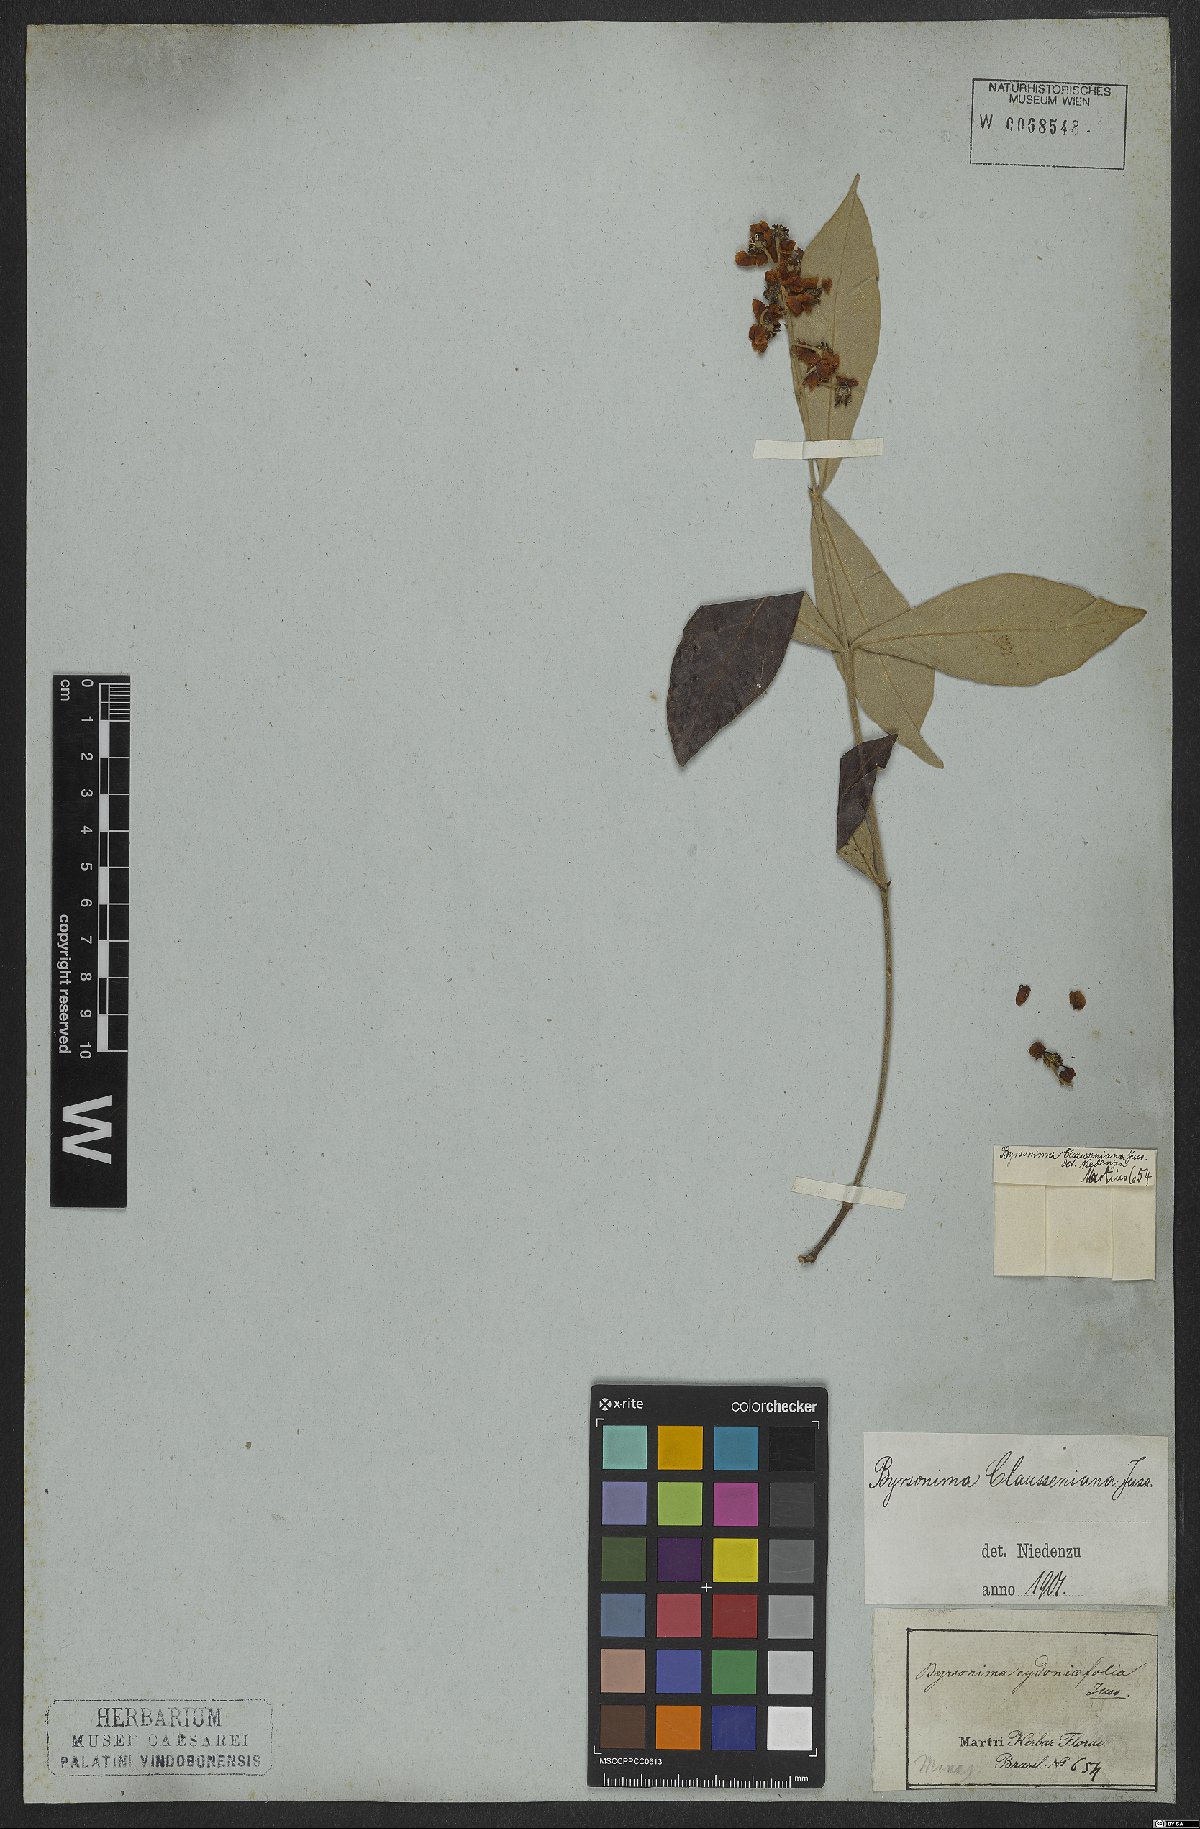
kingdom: Plantae
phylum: Tracheophyta
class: Magnoliopsida
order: Malpighiales
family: Malpighiaceae
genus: Byrsonima
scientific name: Byrsonima clausseniana
